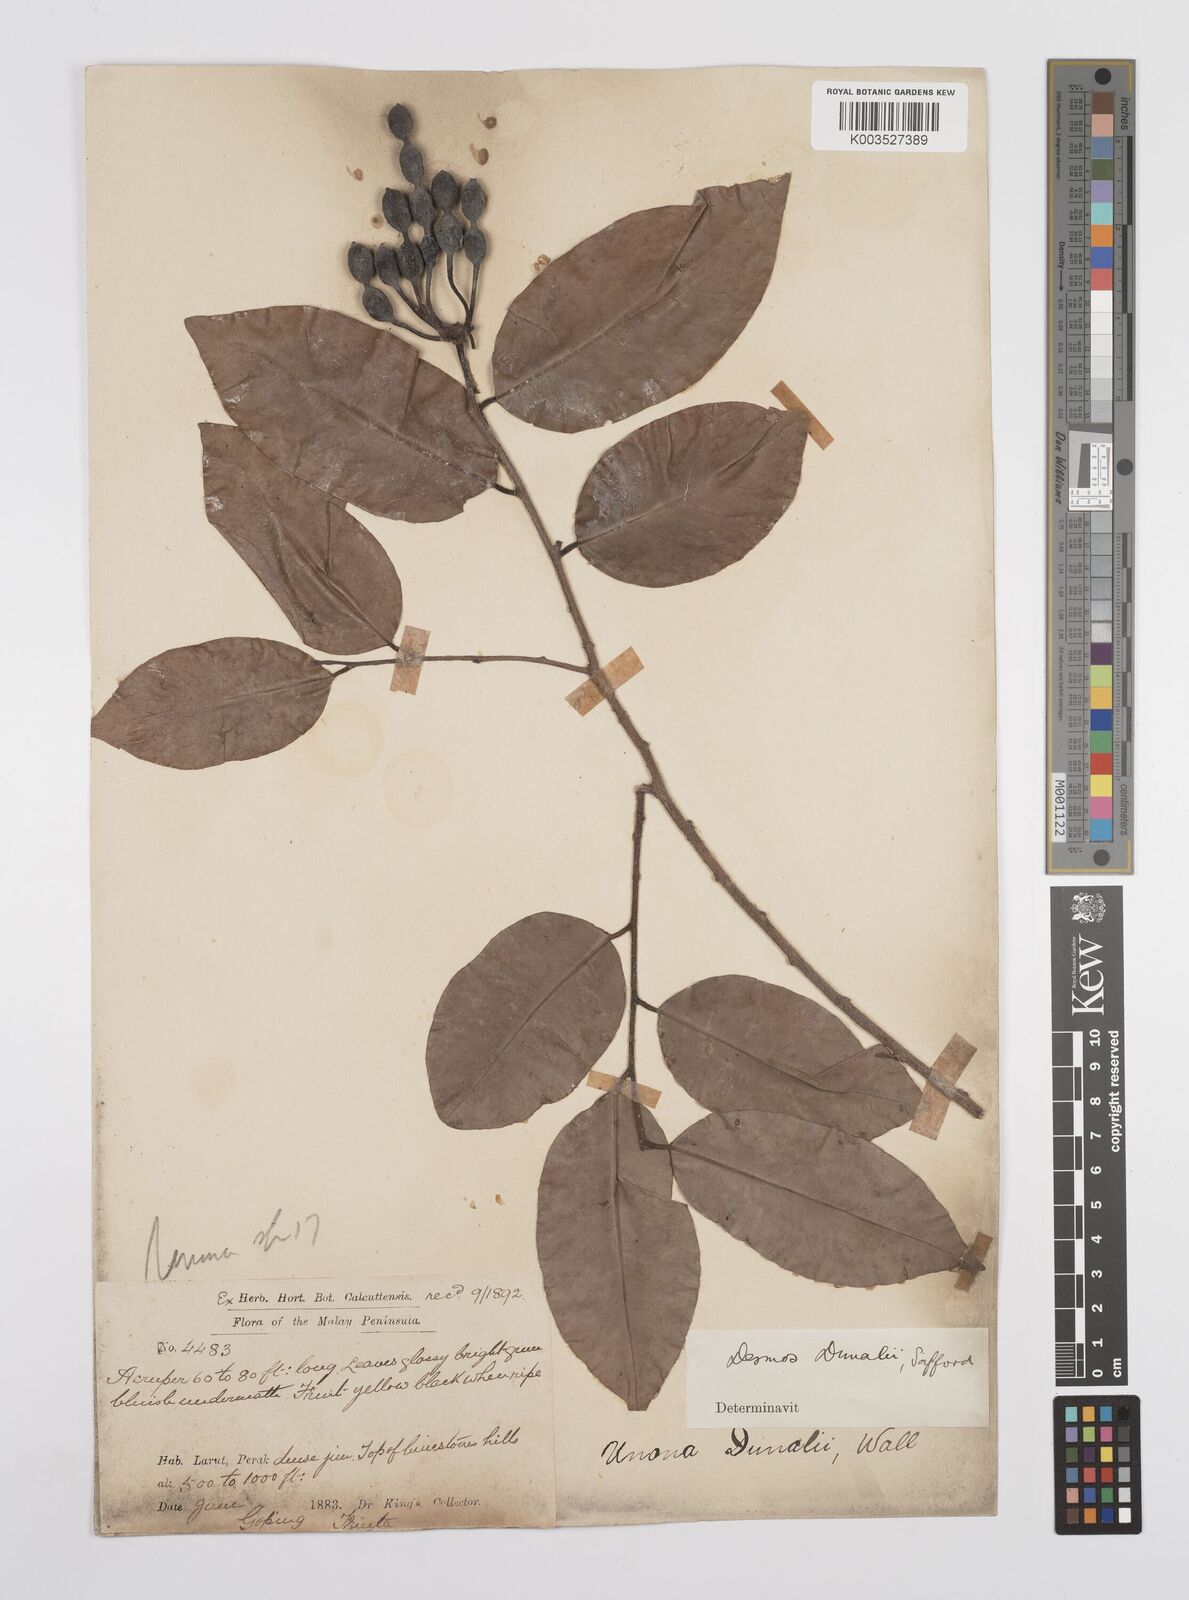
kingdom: Plantae
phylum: Tracheophyta
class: Magnoliopsida
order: Magnoliales
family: Annonaceae
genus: Desmos
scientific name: Desmos dunalii
